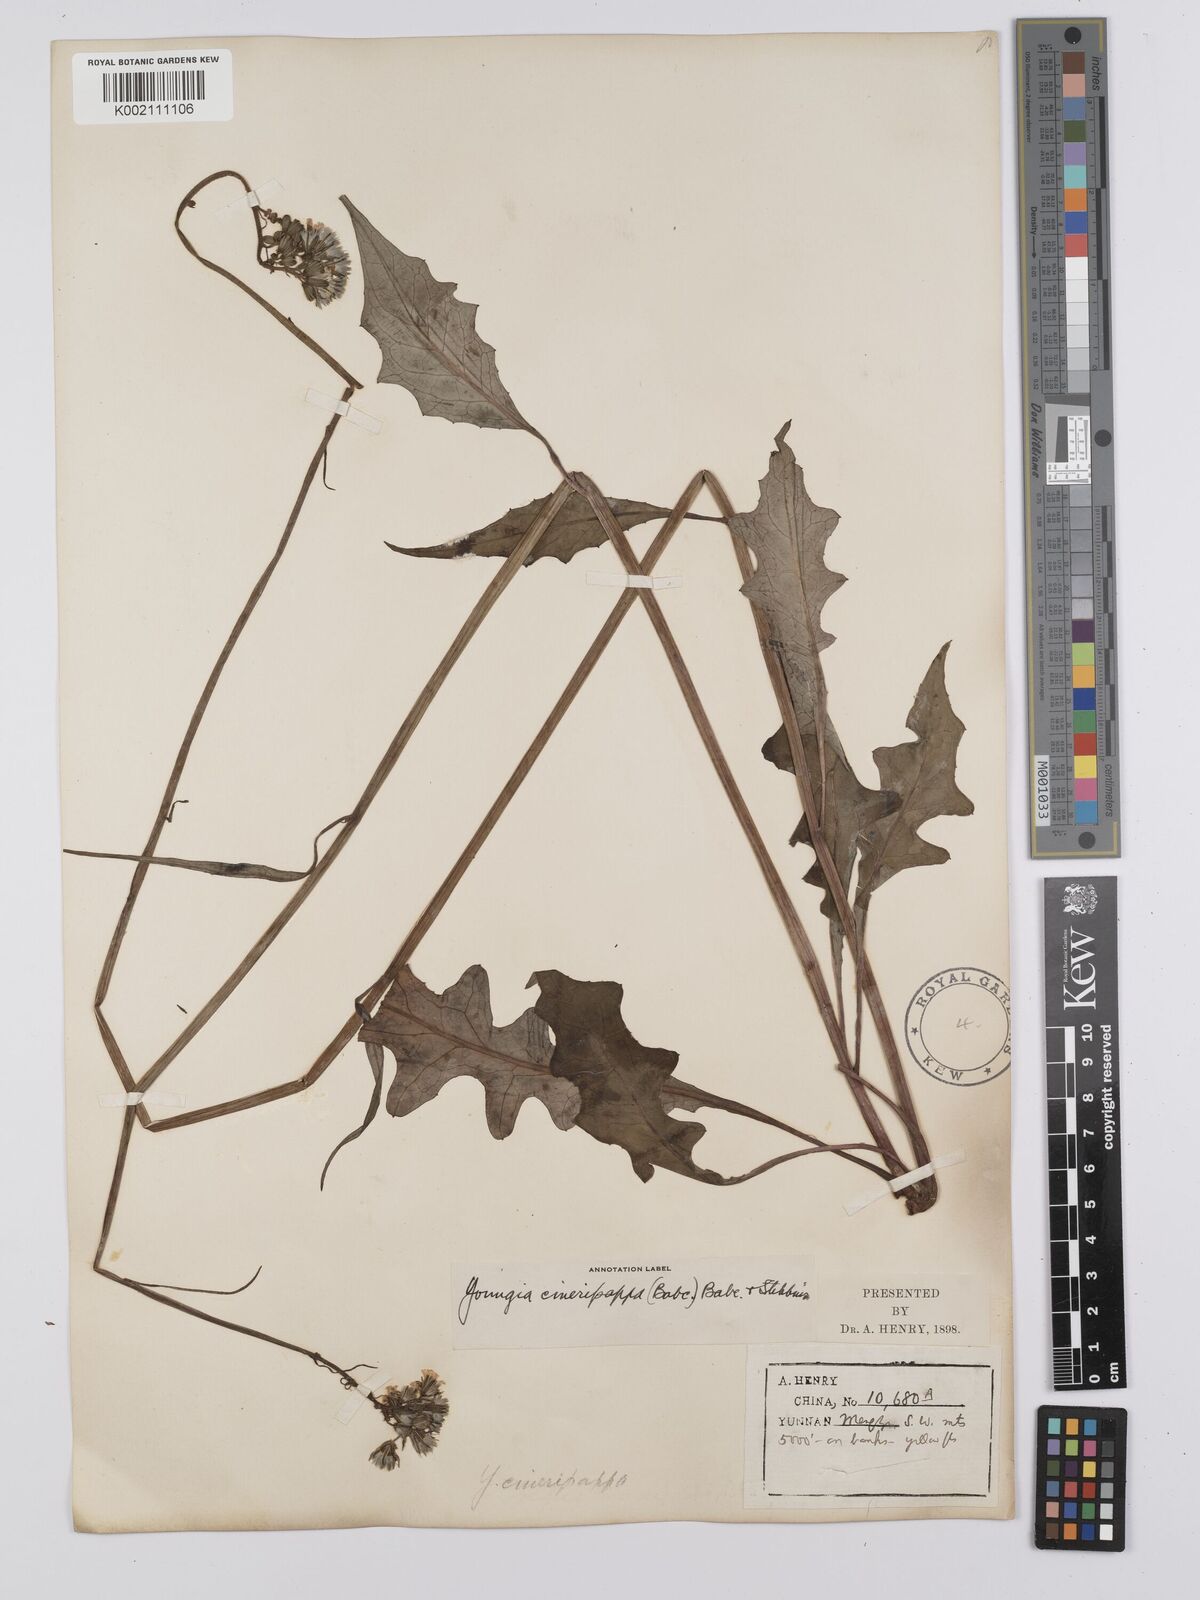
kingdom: Plantae
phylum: Tracheophyta
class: Magnoliopsida
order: Asterales
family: Asteraceae
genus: Youngia
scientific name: Youngia cineripappa
